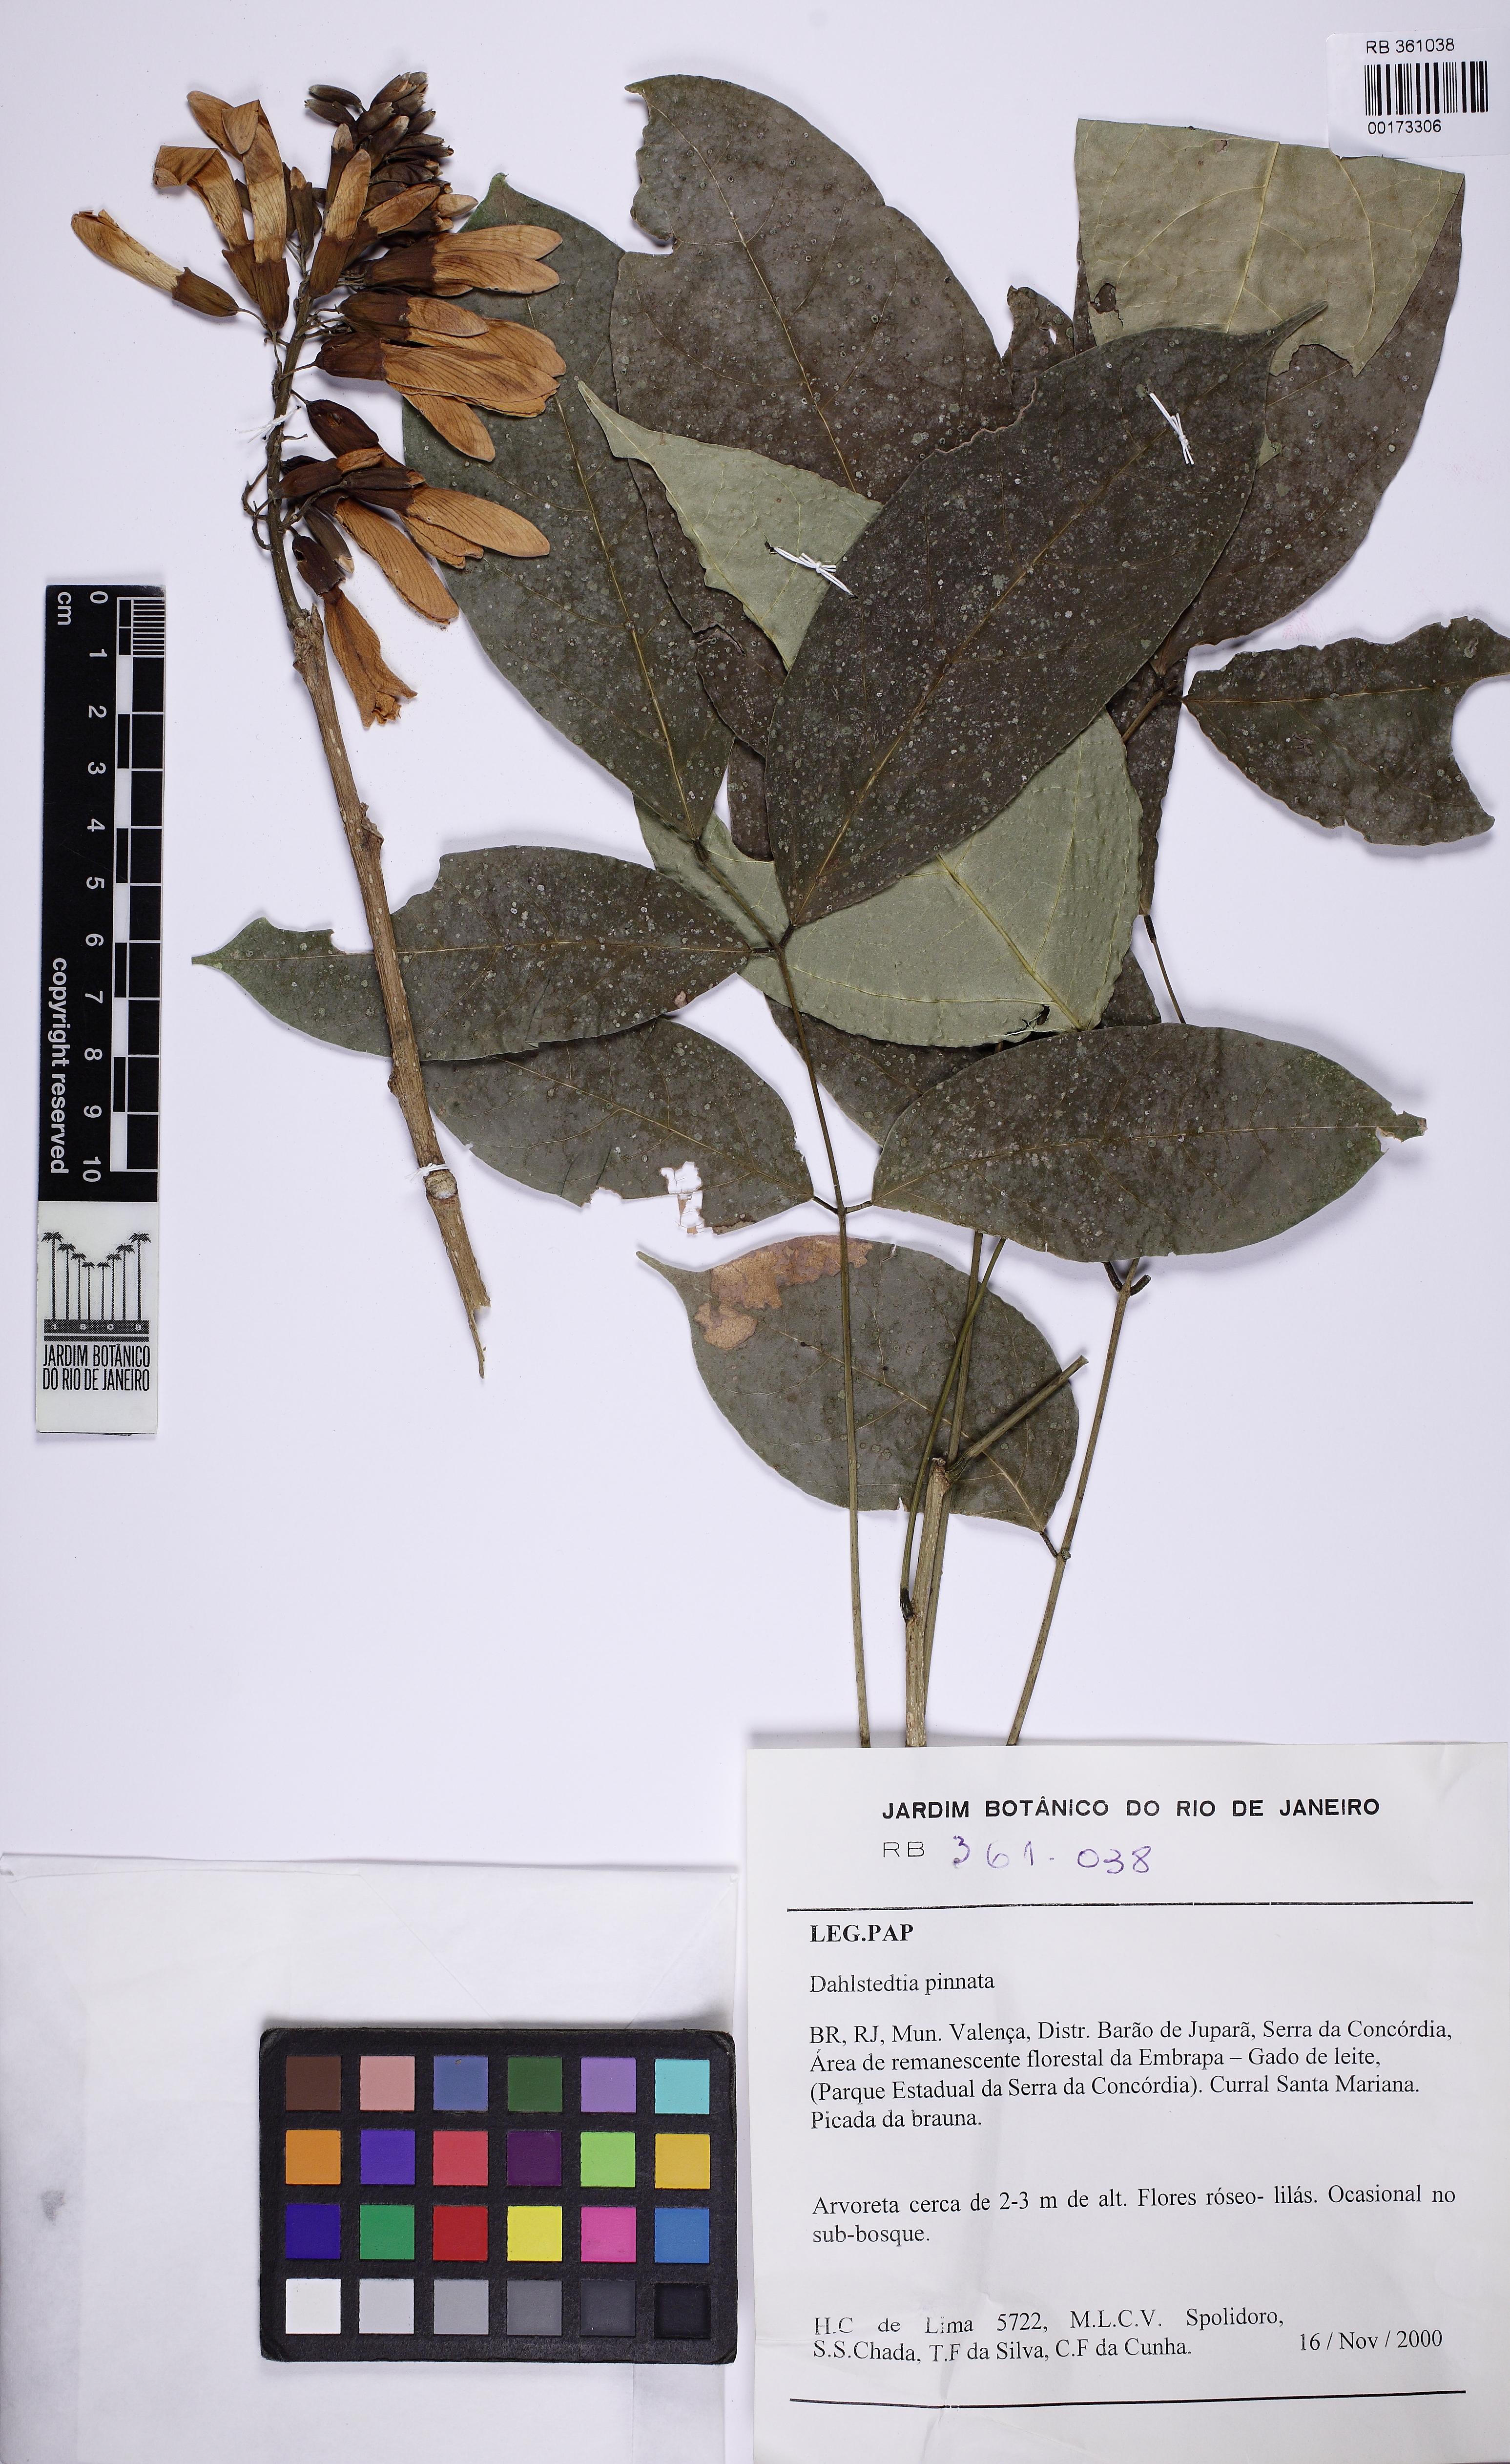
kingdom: Plantae
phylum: Tracheophyta
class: Magnoliopsida
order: Fabales
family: Fabaceae
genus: Dahlstedtia
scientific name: Dahlstedtia pinnata
